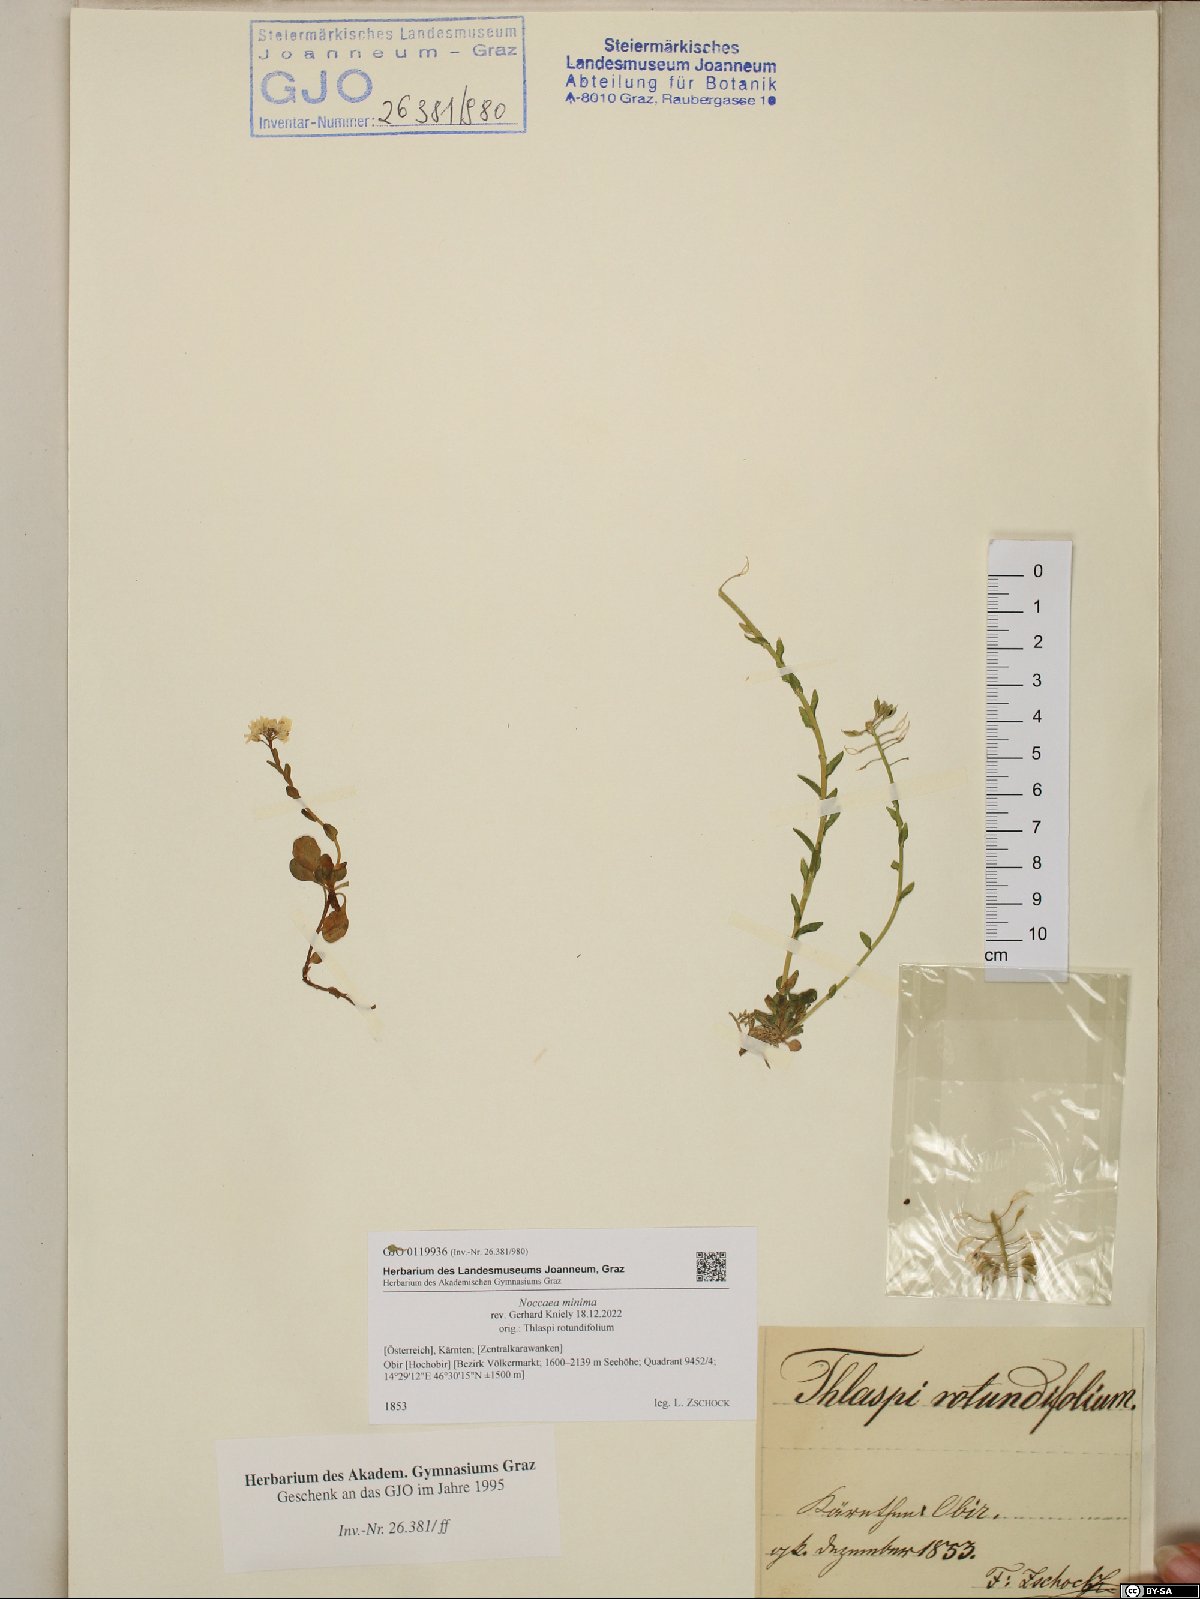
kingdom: Plantae
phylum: Tracheophyta
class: Magnoliopsida
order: Brassicales
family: Brassicaceae
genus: Noccaea
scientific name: Noccaea minima
